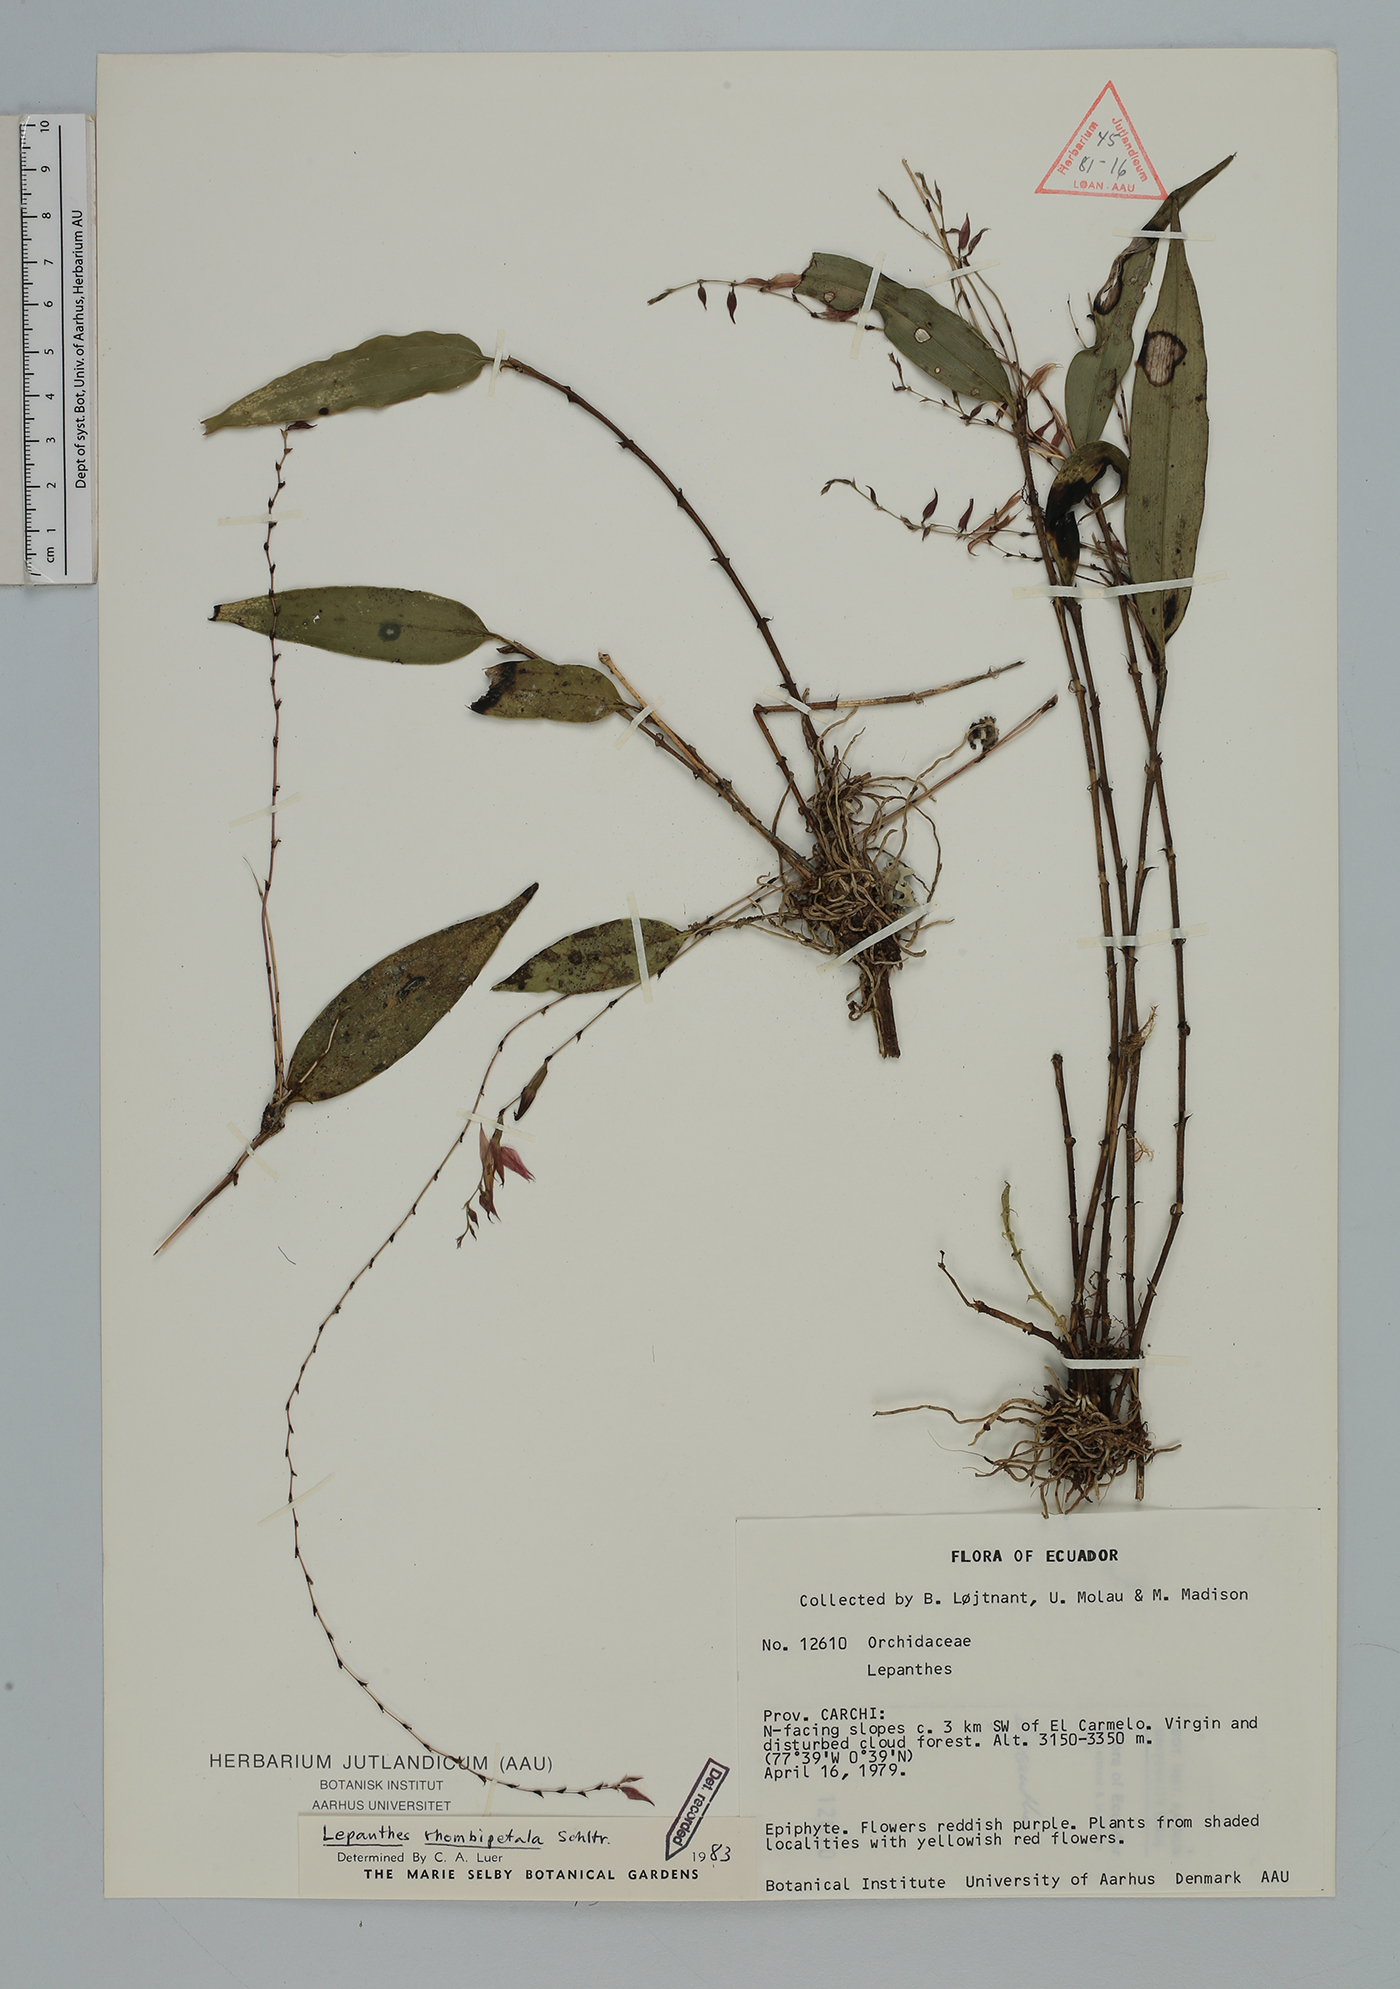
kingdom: Plantae
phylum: Tracheophyta
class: Liliopsida
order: Asparagales
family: Orchidaceae
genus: Lepanthes
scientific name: Lepanthes rhombipetala
